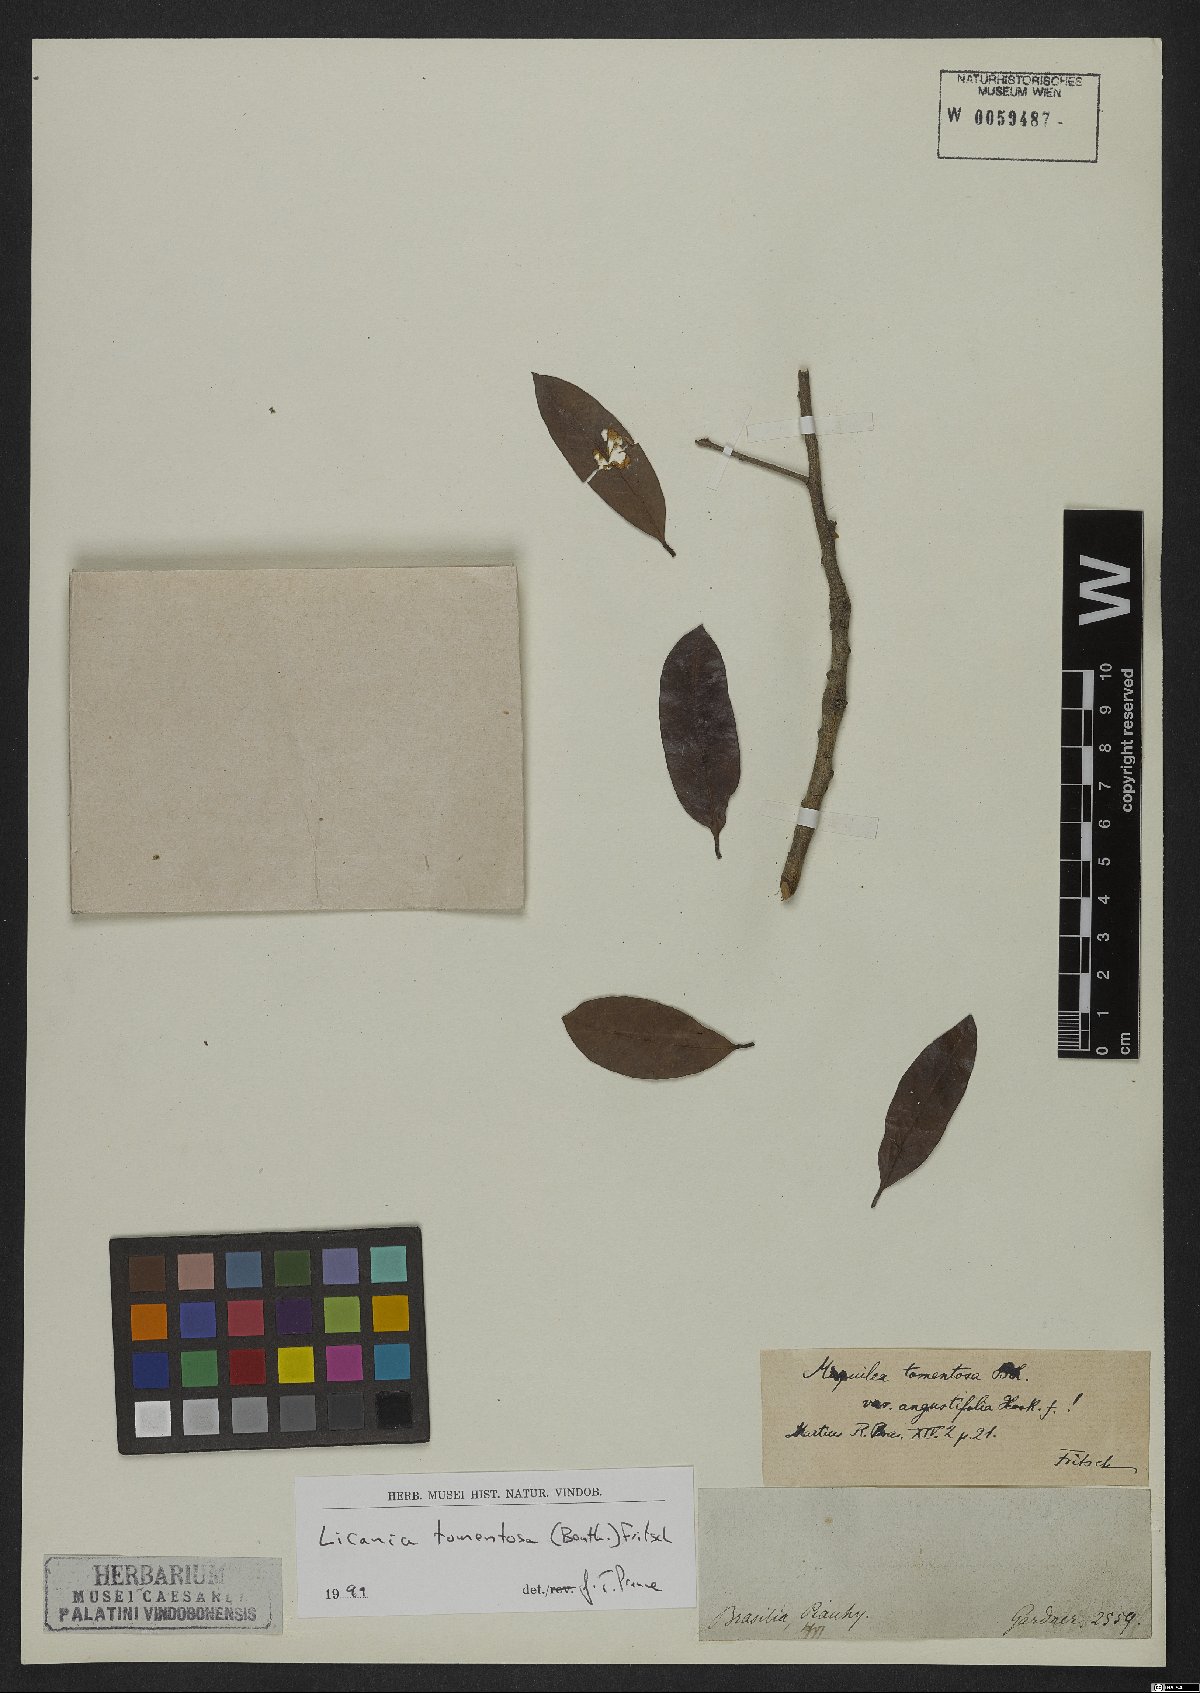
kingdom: Plantae
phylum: Tracheophyta
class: Magnoliopsida
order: Malpighiales
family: Chrysobalanaceae
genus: Moquilea
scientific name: Moquilea tomentosa
